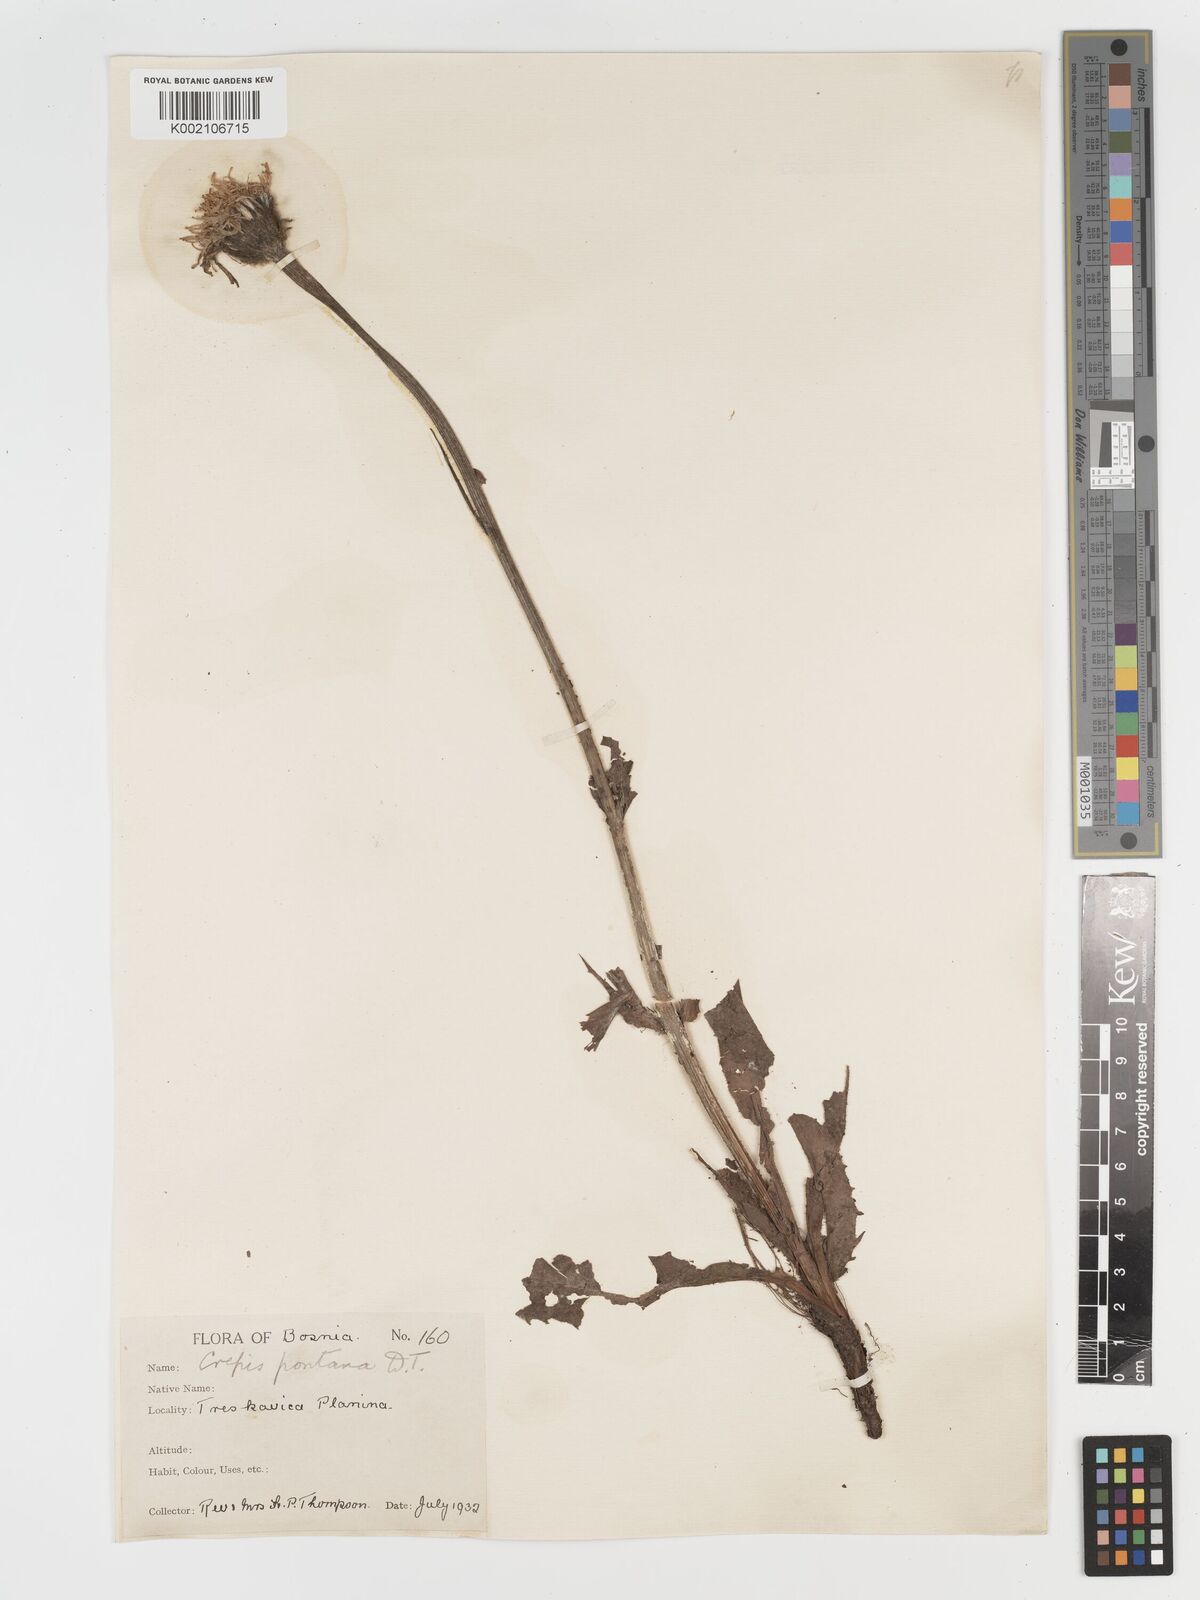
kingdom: Plantae
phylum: Tracheophyta
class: Magnoliopsida
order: Asterales
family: Asteraceae
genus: Crepis
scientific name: Crepis pontana
